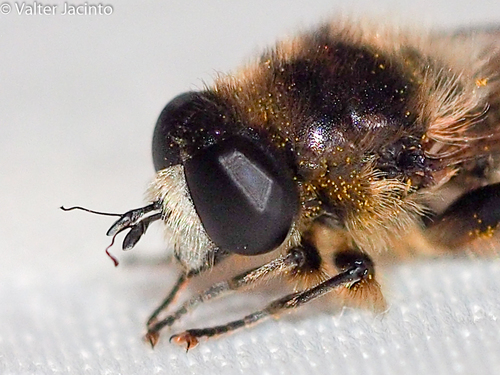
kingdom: Animalia
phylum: Arthropoda
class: Insecta
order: Diptera
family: Syrphidae
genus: Merodon
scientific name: Merodon setosus
